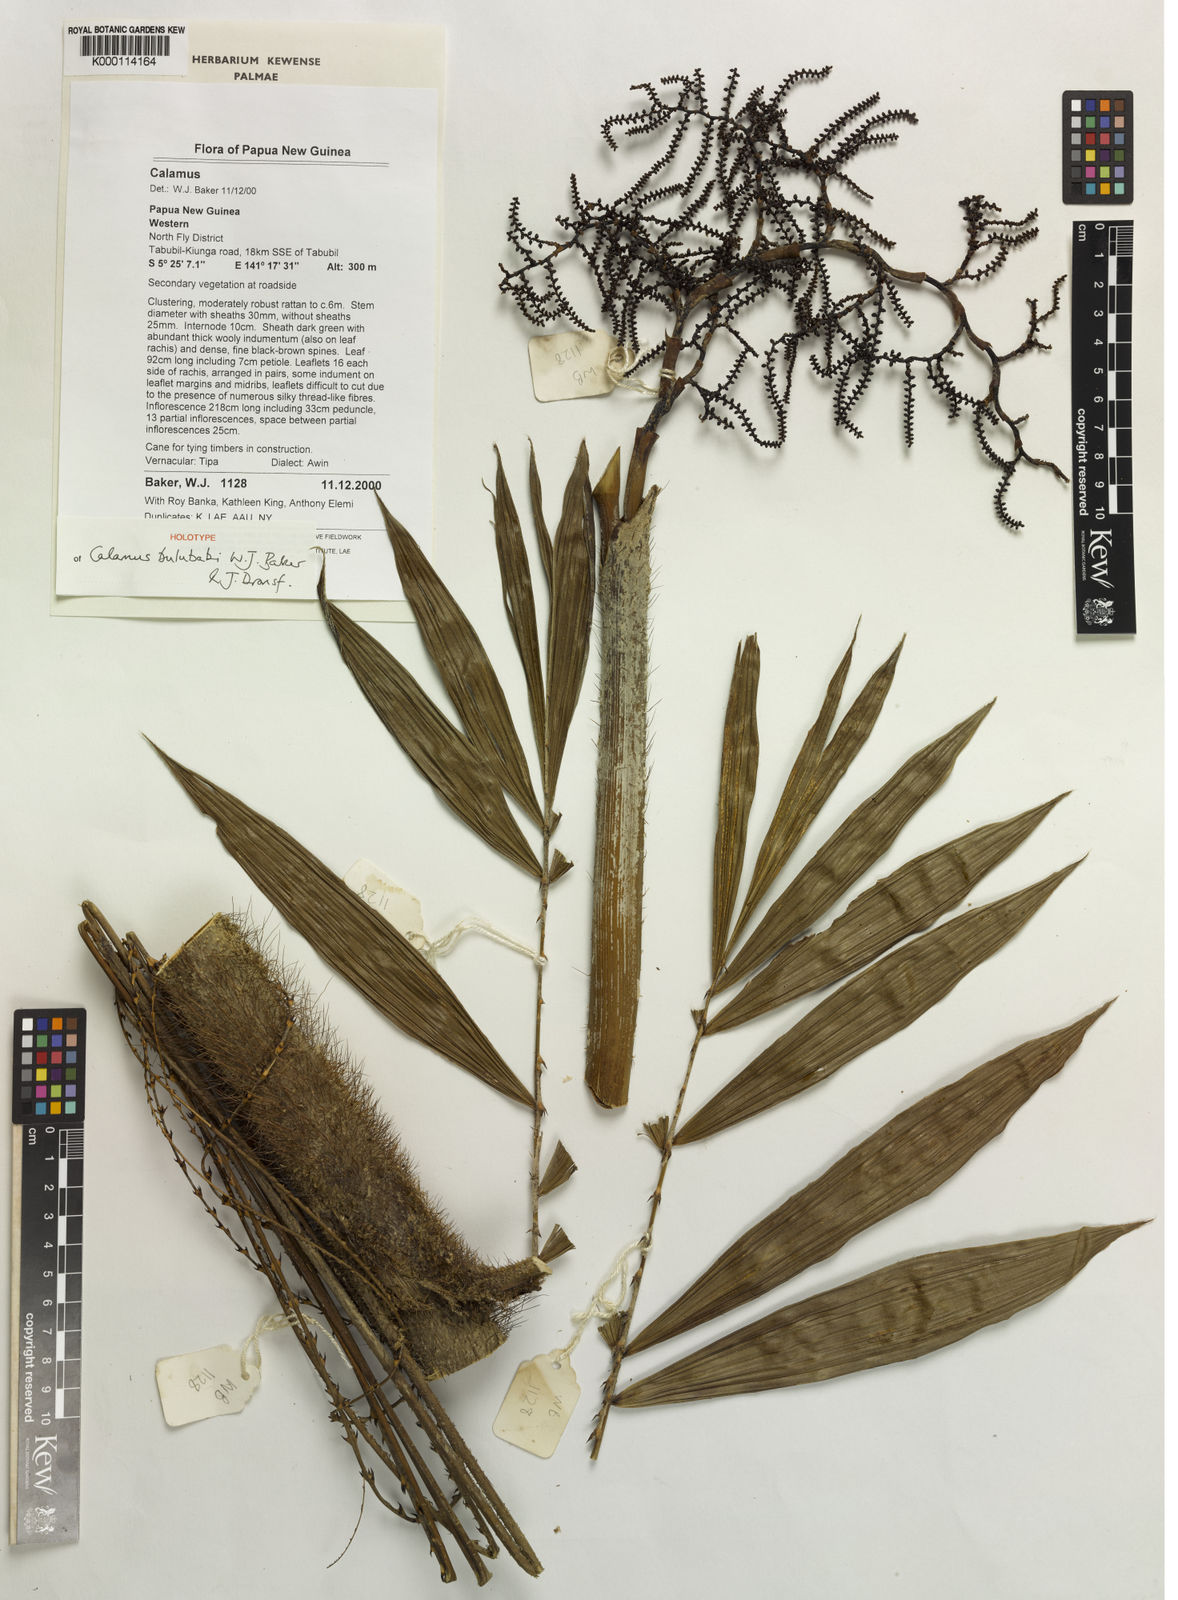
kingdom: Plantae
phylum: Tracheophyta
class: Liliopsida
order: Arecales
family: Arecaceae
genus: Calamus
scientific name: Calamus bulubabi
